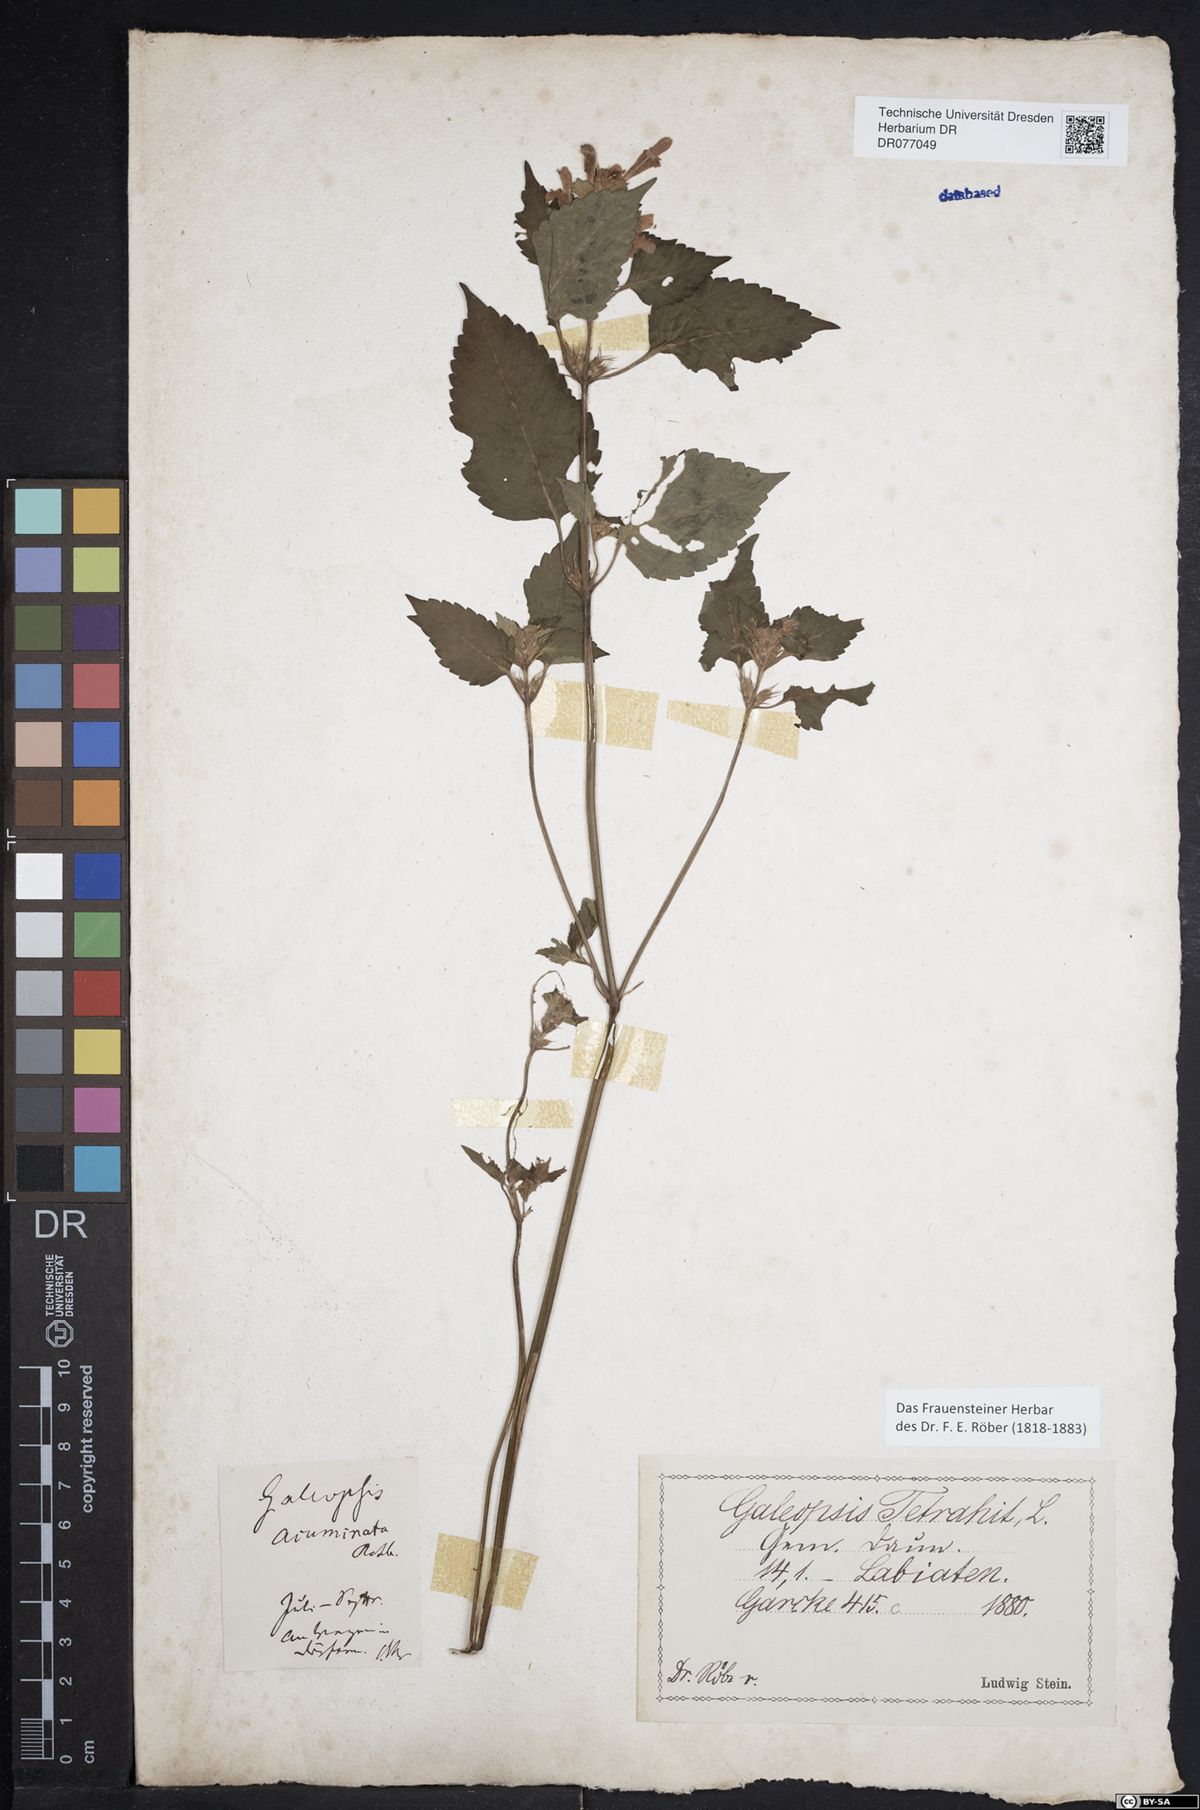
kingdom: Plantae
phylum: Tracheophyta
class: Magnoliopsida
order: Lamiales
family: Lamiaceae
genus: Galeopsis
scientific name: Galeopsis tetrahit
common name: Common hemp-nettle
